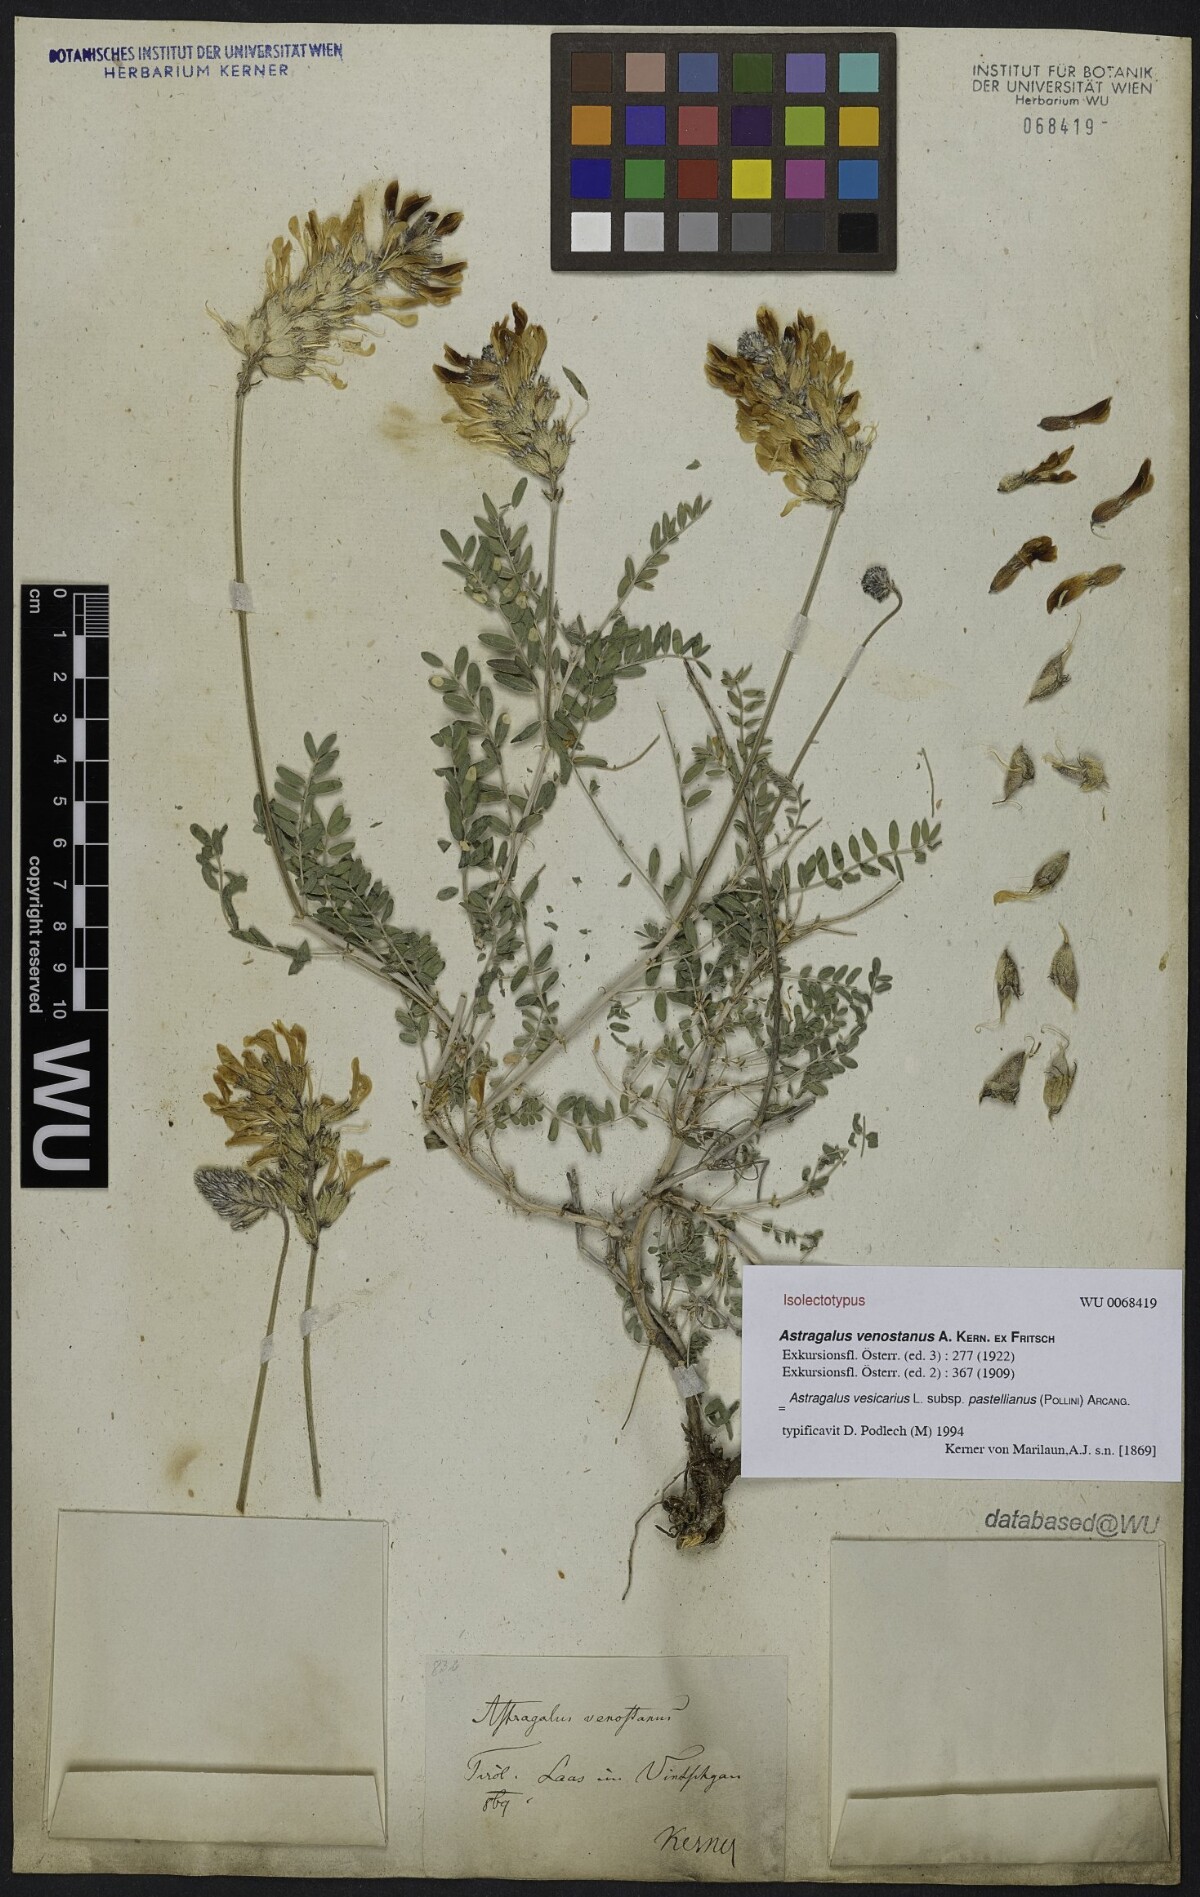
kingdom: Plantae
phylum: Tracheophyta
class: Magnoliopsida
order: Fabales
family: Fabaceae
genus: Astragalus
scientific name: Astragalus vesicarius
